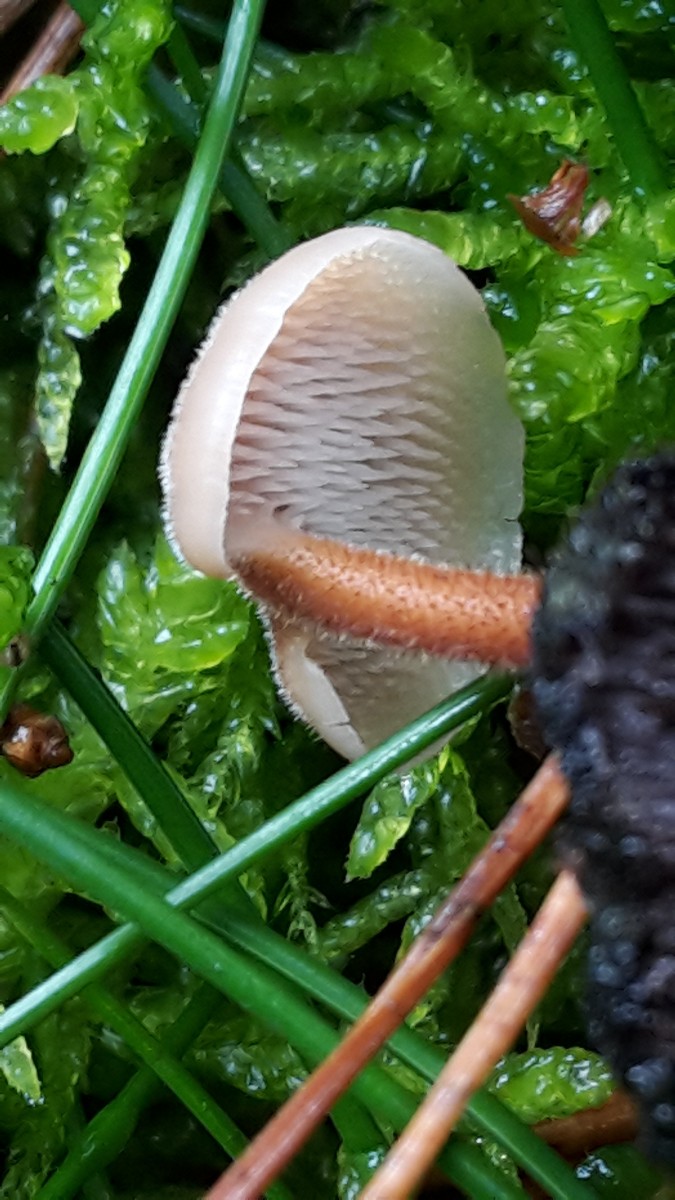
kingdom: Fungi
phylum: Basidiomycota
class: Agaricomycetes
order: Russulales
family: Auriscalpiaceae
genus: Auriscalpium
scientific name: Auriscalpium vulgare
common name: koglepigsvamp
